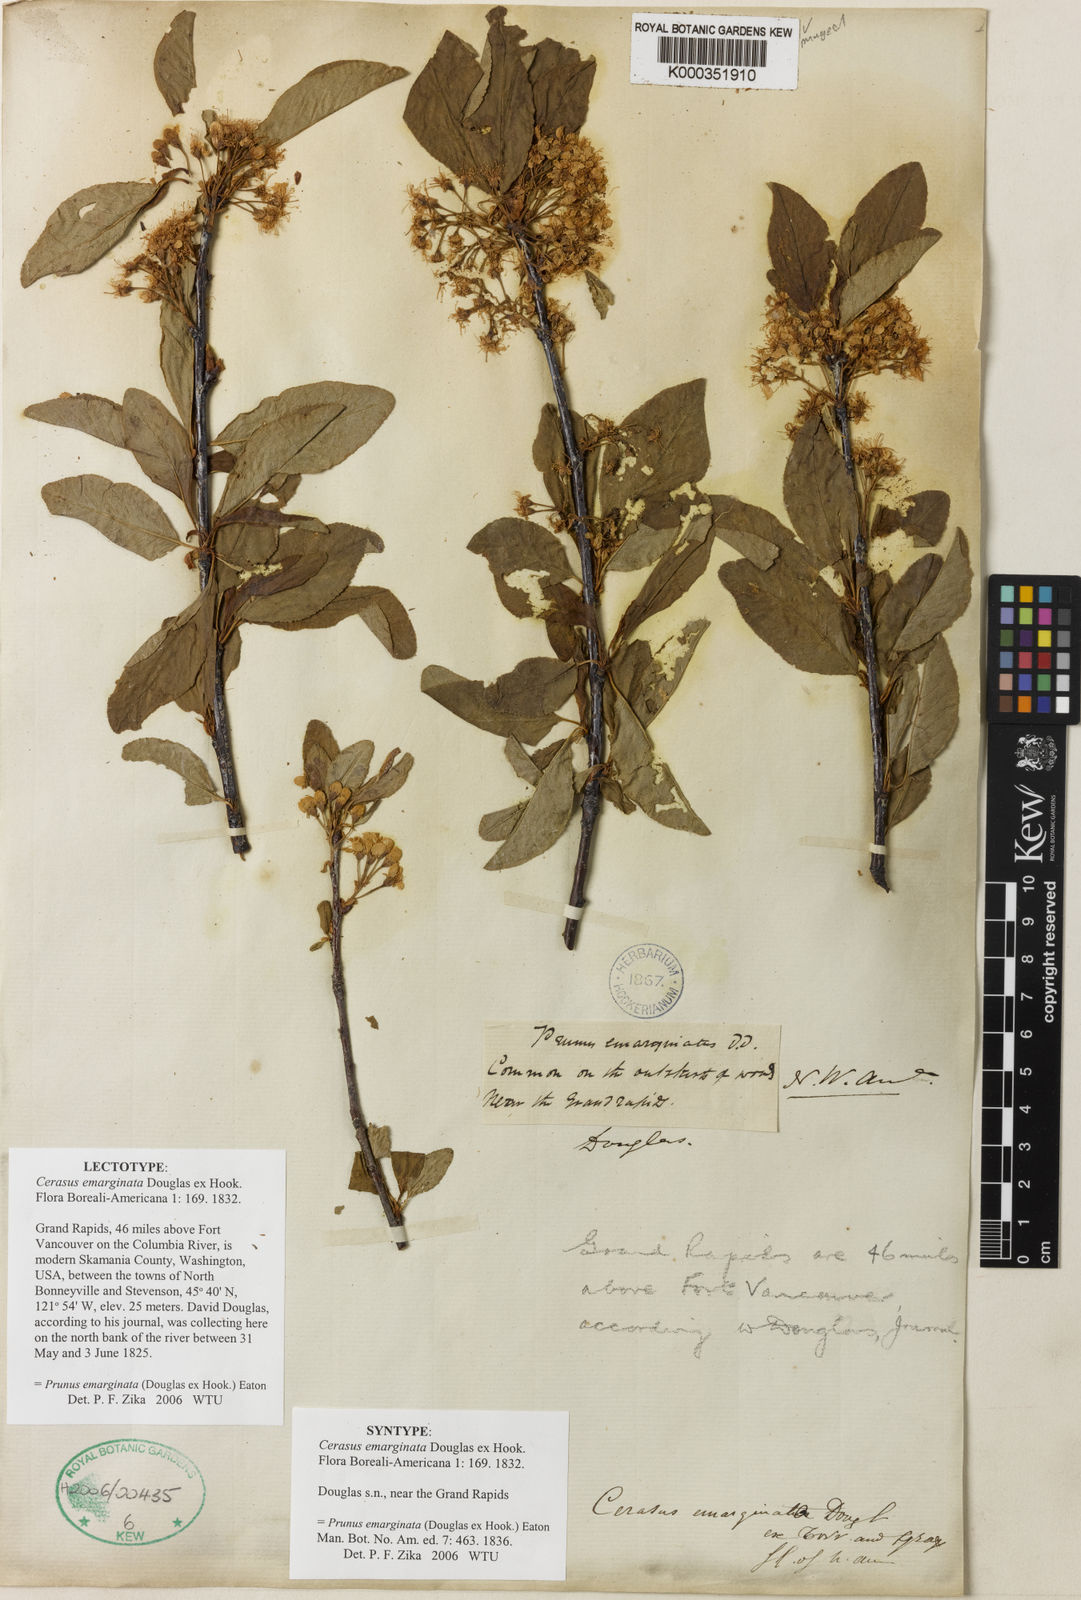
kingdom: Plantae
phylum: Tracheophyta
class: Magnoliopsida
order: Rosales
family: Rosaceae
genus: Prunus
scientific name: Prunus
